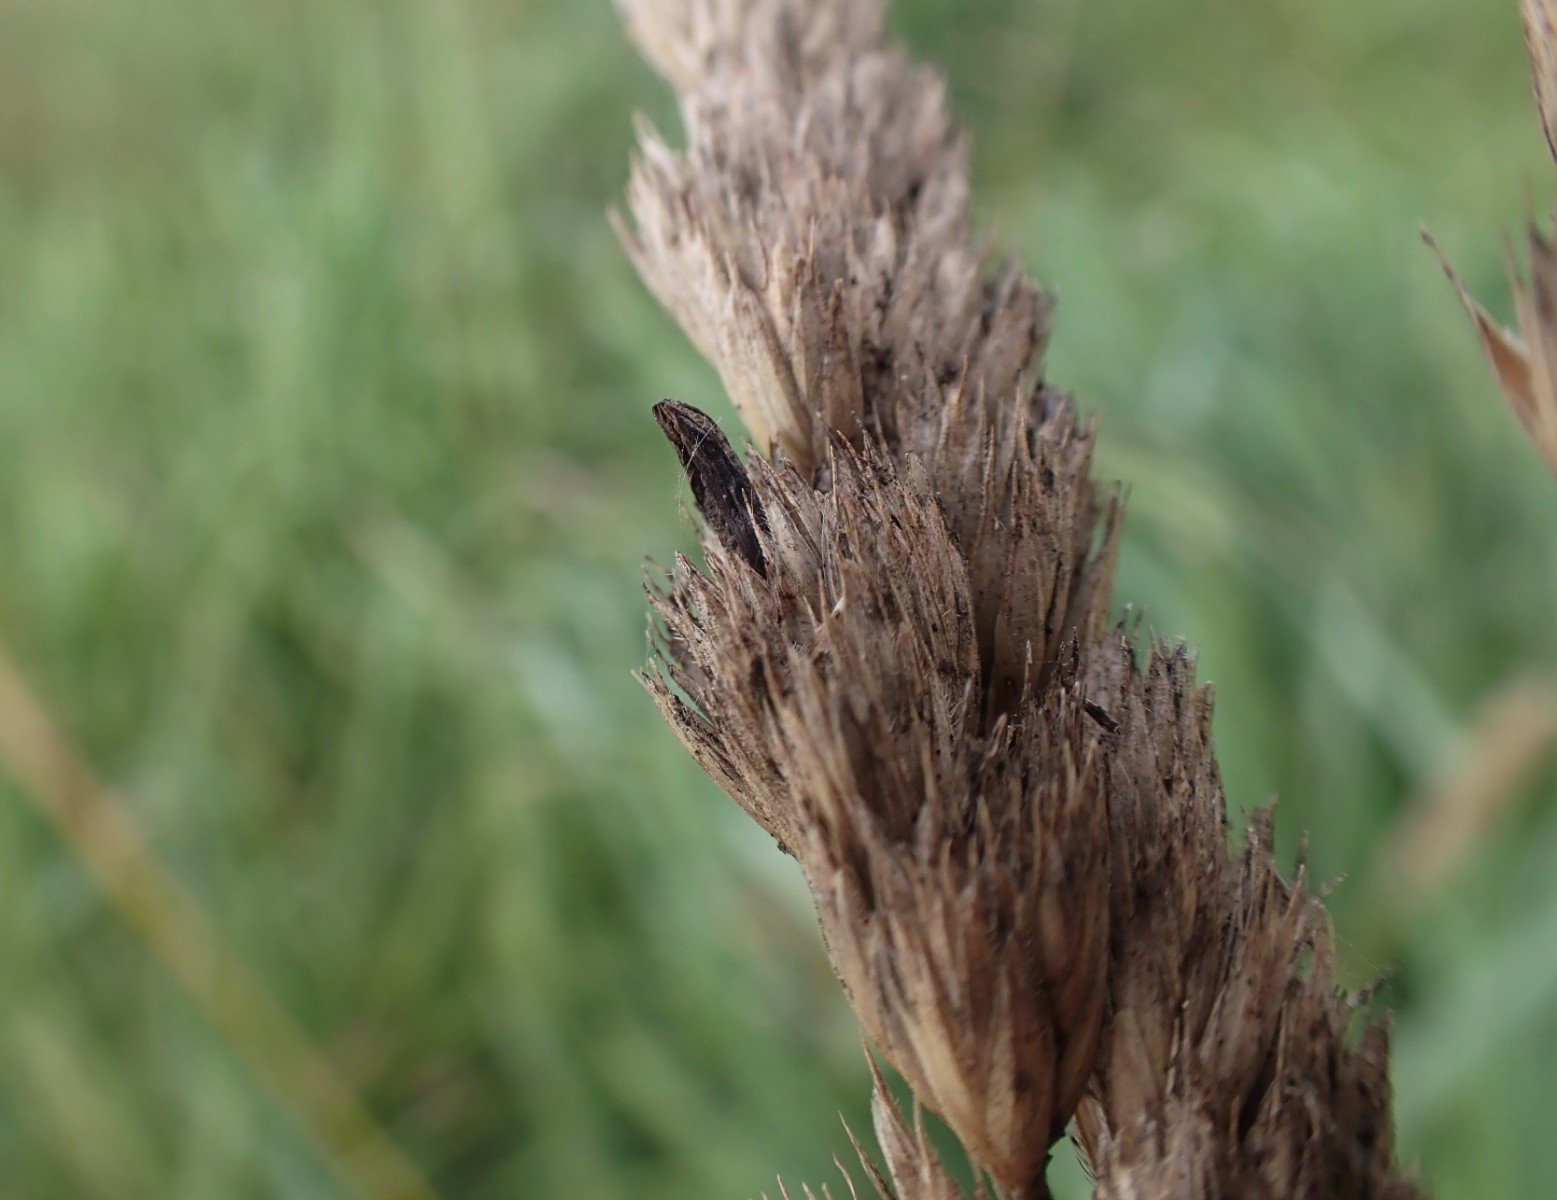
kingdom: Fungi
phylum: Ascomycota
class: Sordariomycetes
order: Hypocreales
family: Clavicipitaceae
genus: Claviceps
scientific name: Claviceps purpurea
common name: almindelig meldrøjer
